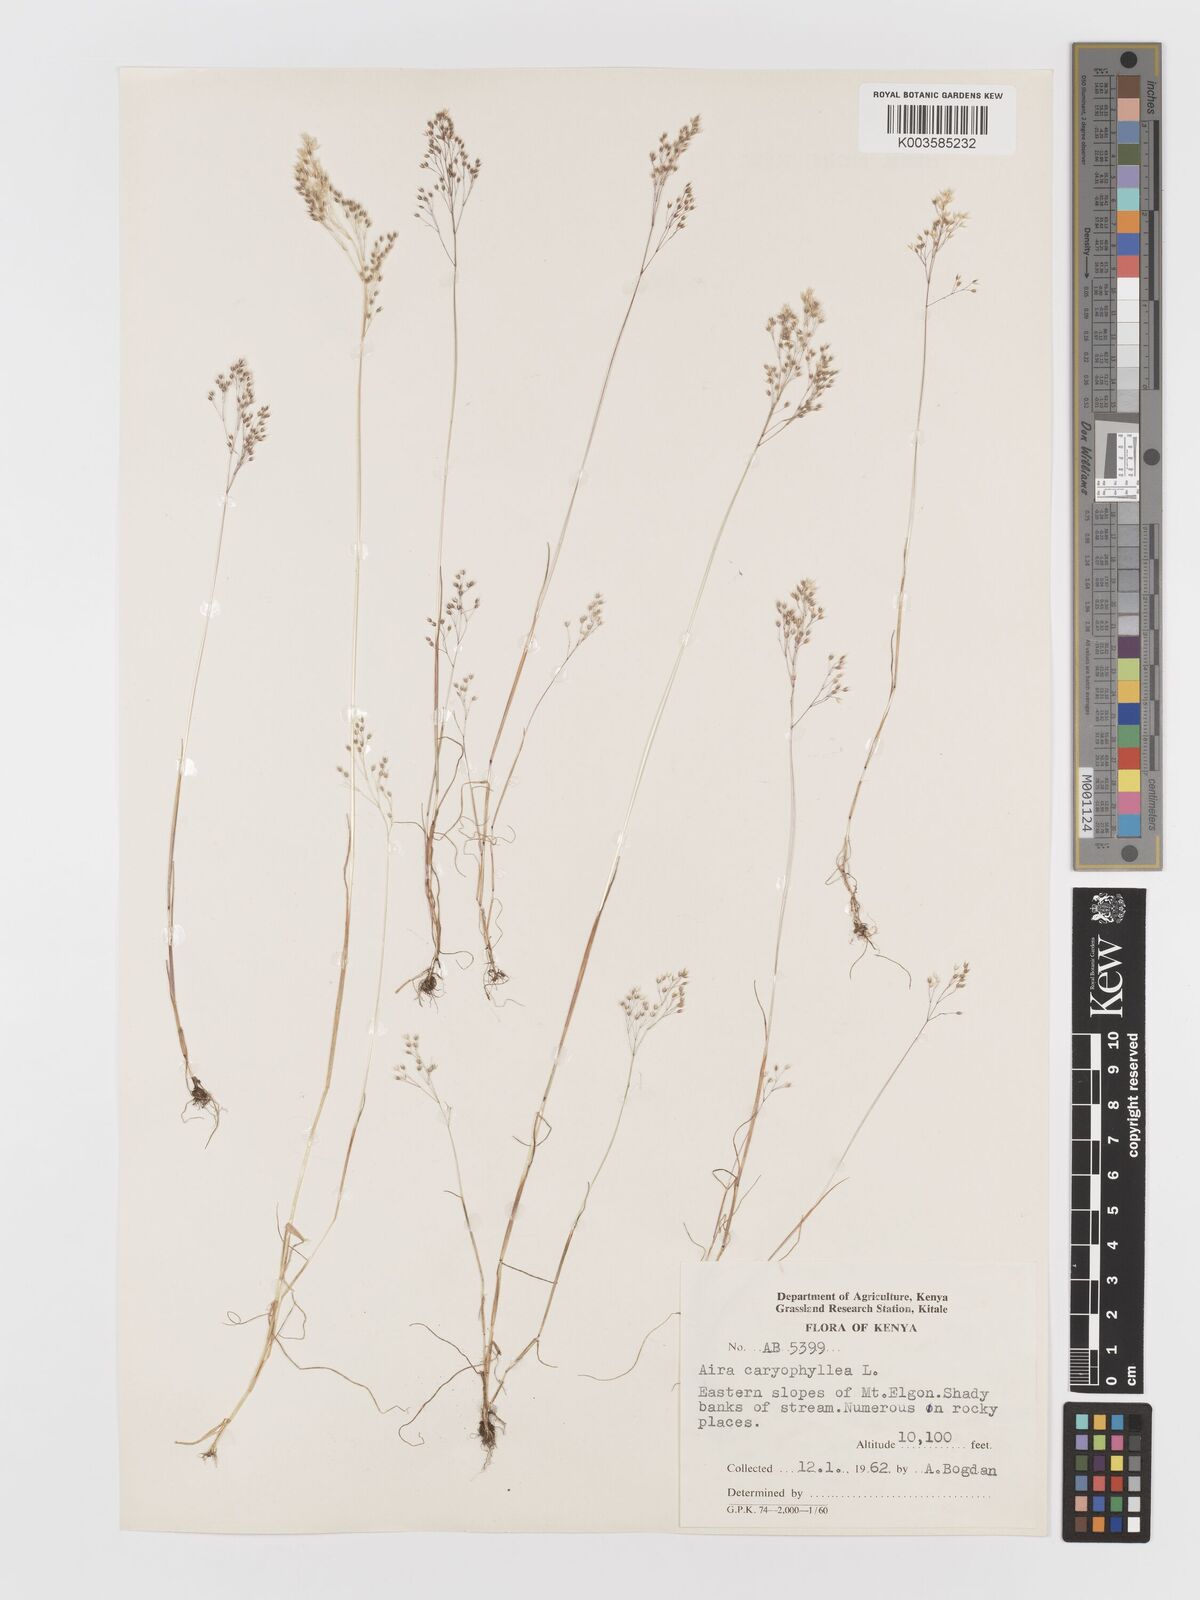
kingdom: Plantae
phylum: Tracheophyta
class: Liliopsida
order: Poales
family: Poaceae
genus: Aira
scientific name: Aira caryophyllea
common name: Silver hairgrass
